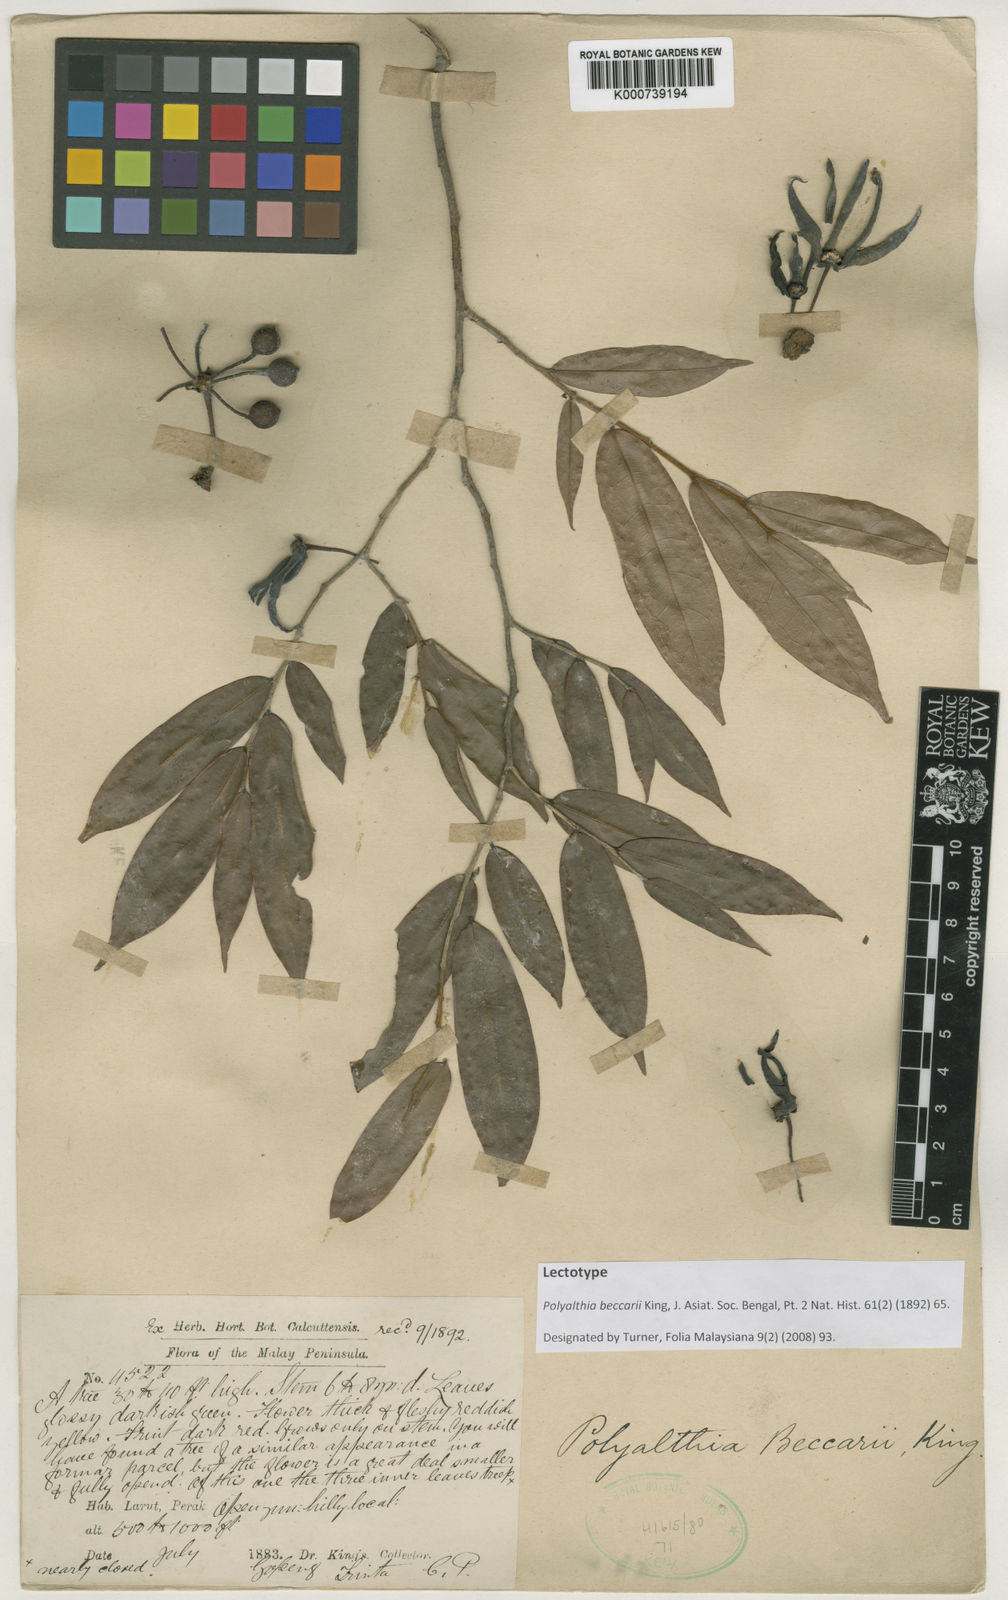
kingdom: Plantae
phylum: Tracheophyta
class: Magnoliopsida
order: Magnoliales
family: Annonaceae
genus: Polyalthia
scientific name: Polyalthia cauliflora
